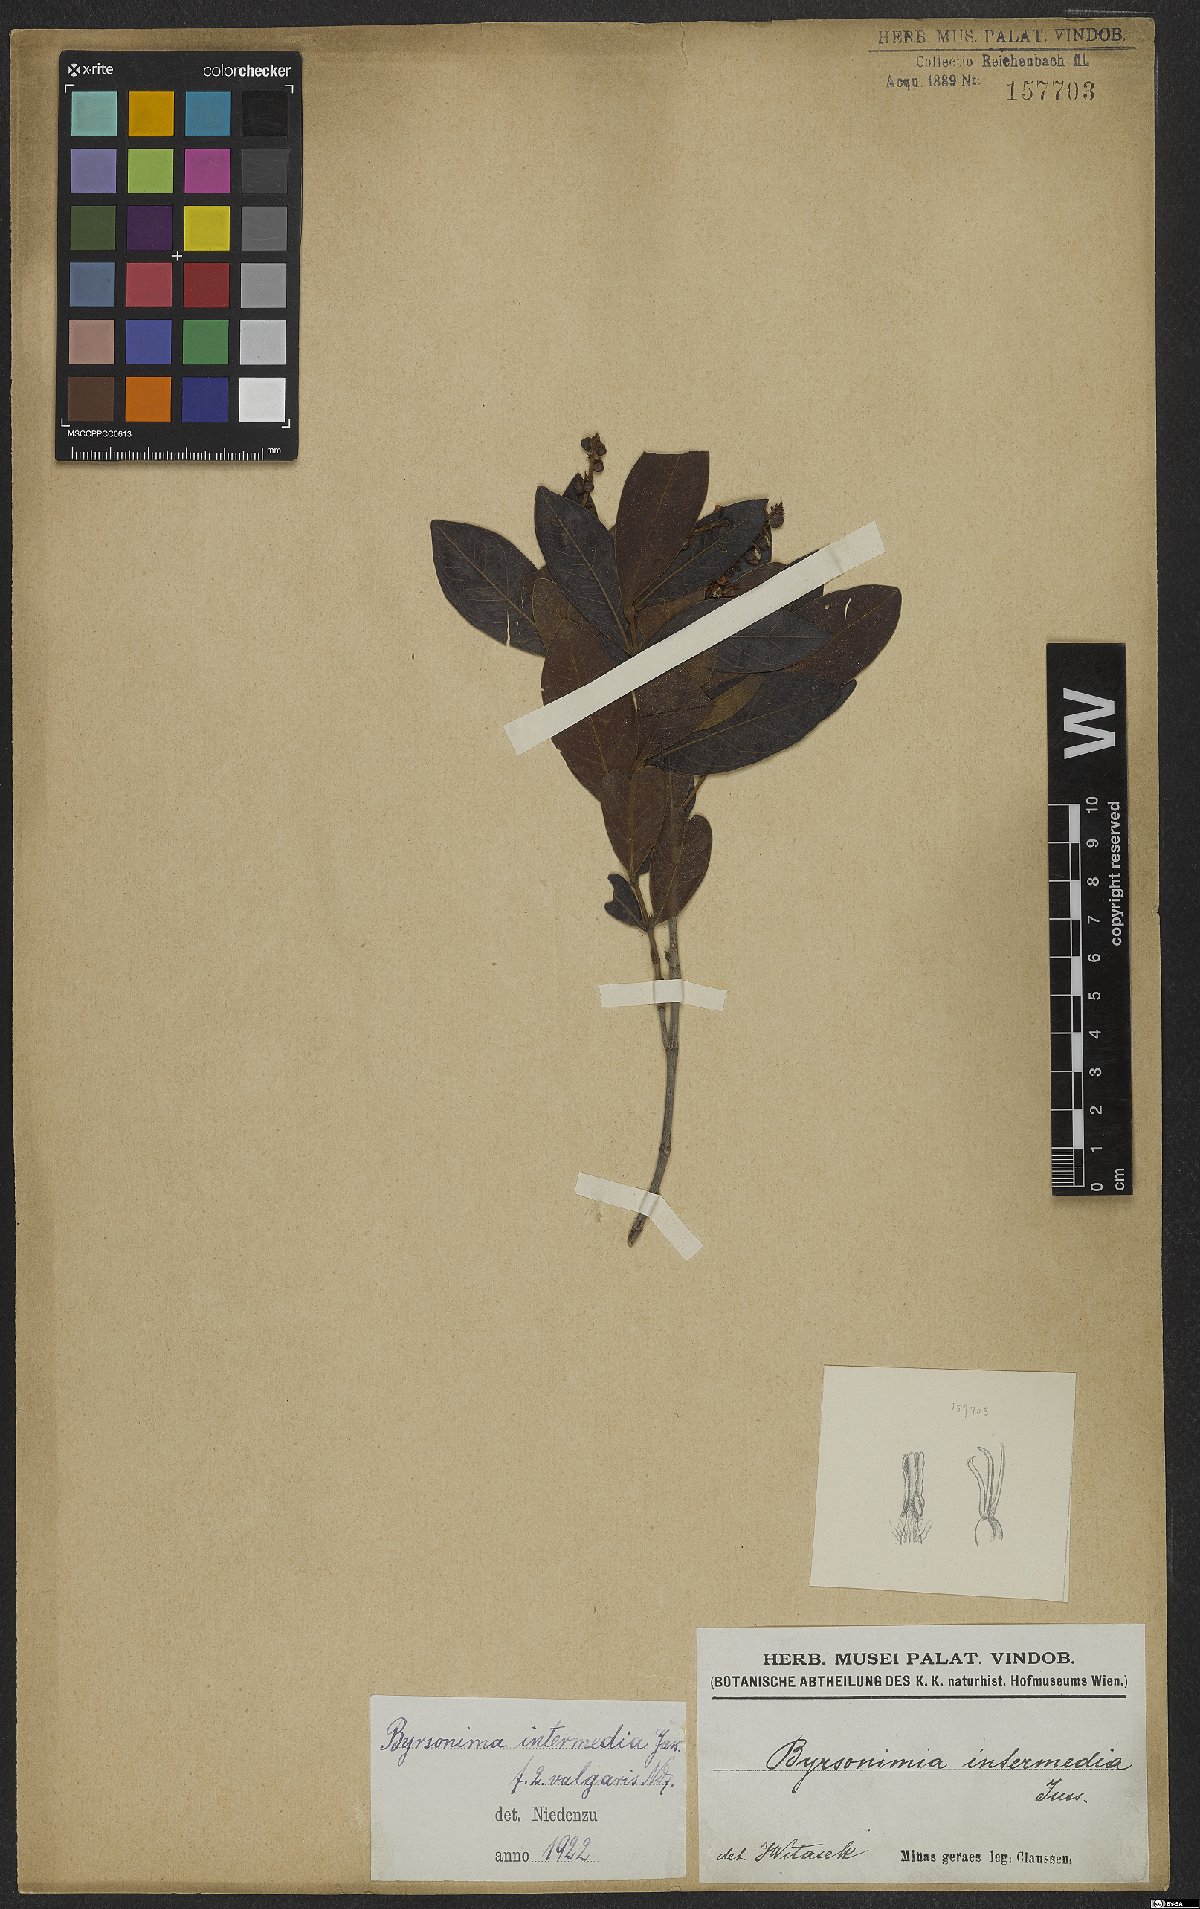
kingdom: Plantae
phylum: Tracheophyta
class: Magnoliopsida
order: Malpighiales
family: Malpighiaceae
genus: Byrsonima
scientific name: Byrsonima intermedia
